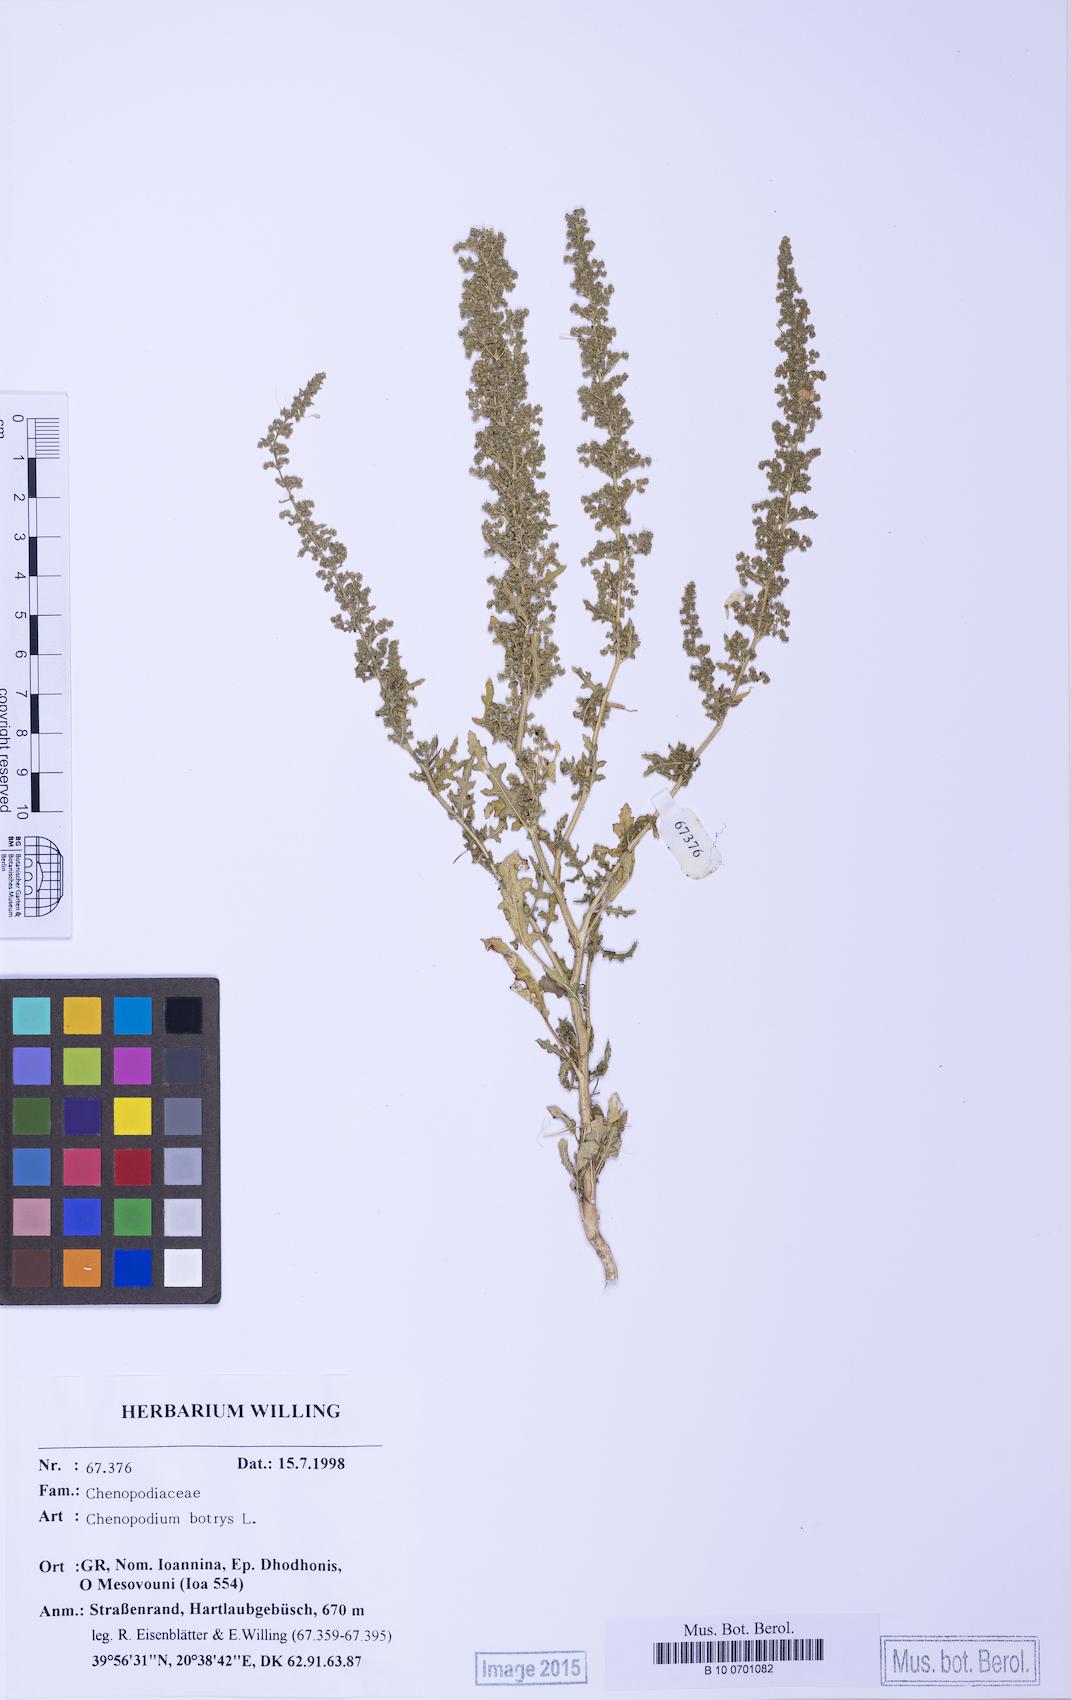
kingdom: Plantae
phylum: Tracheophyta
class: Magnoliopsida
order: Caryophyllales
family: Amaranthaceae
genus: Dysphania
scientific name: Dysphania botrys
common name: Feather-geranium
